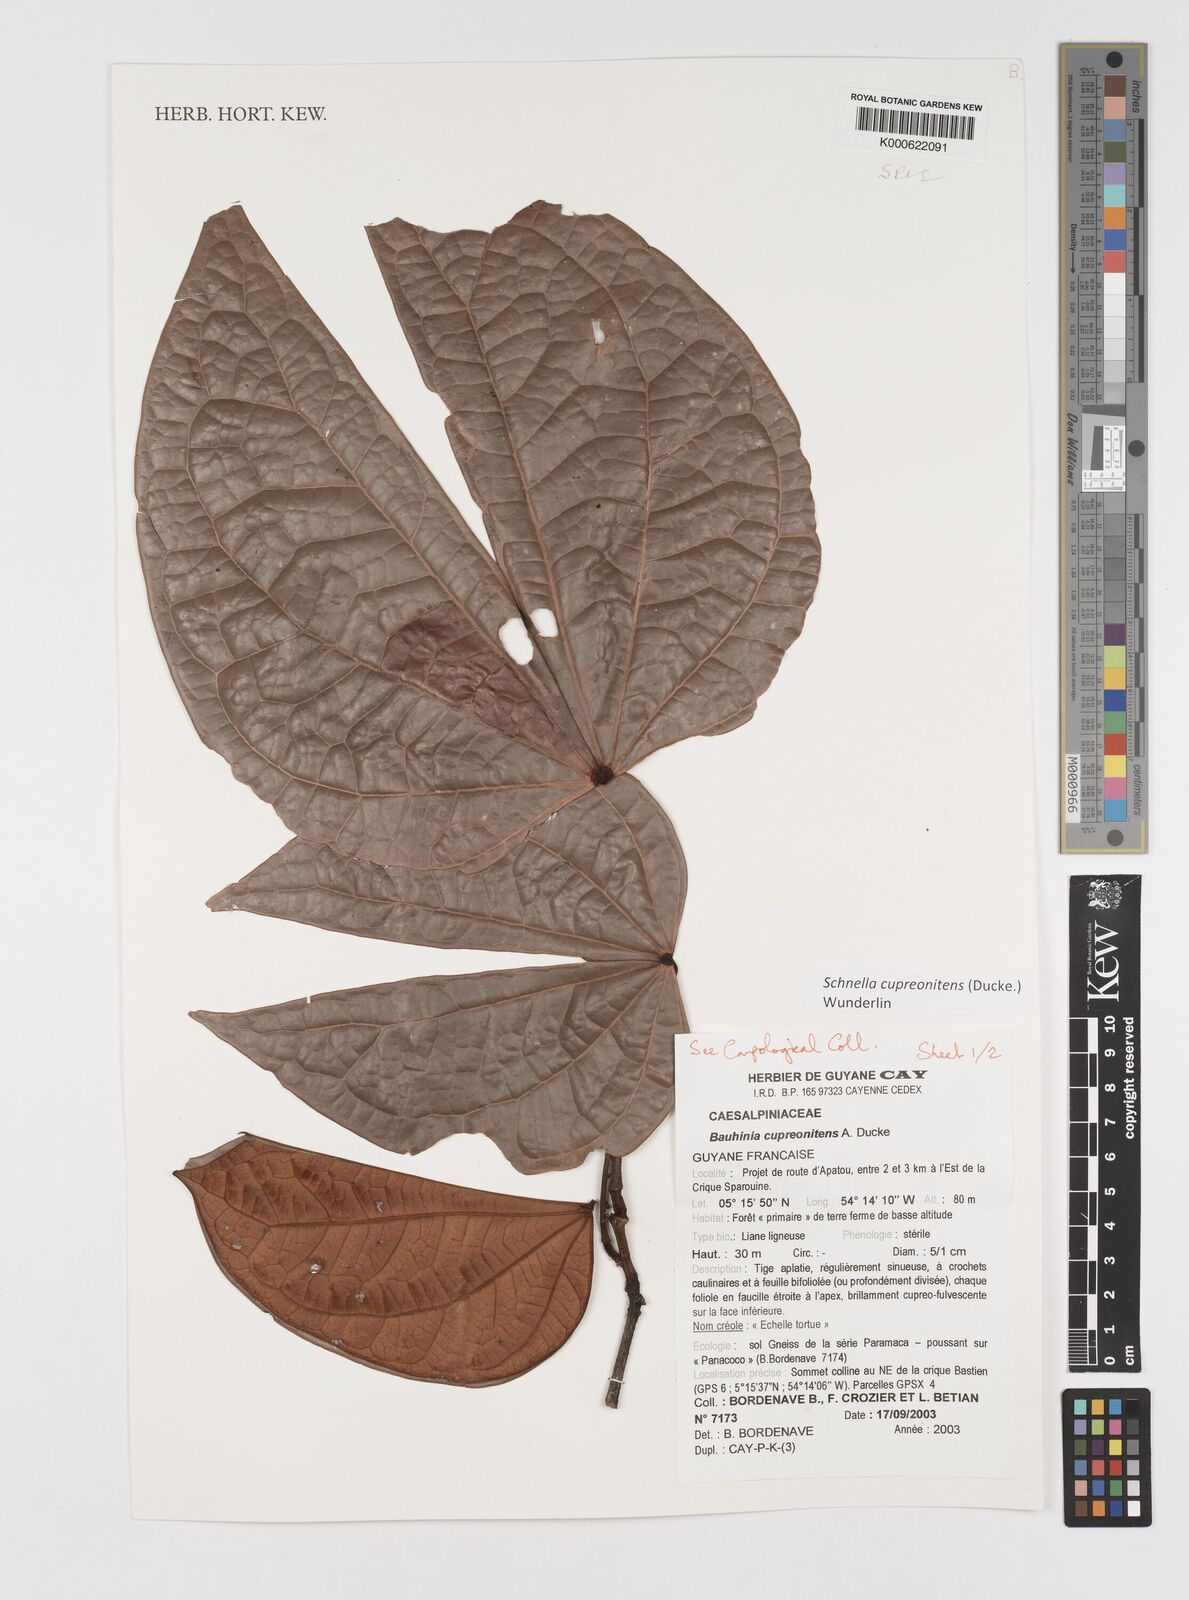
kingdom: Plantae
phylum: Tracheophyta
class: Magnoliopsida
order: Fabales
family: Fabaceae
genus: Schnella
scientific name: Schnella cupreonitens
